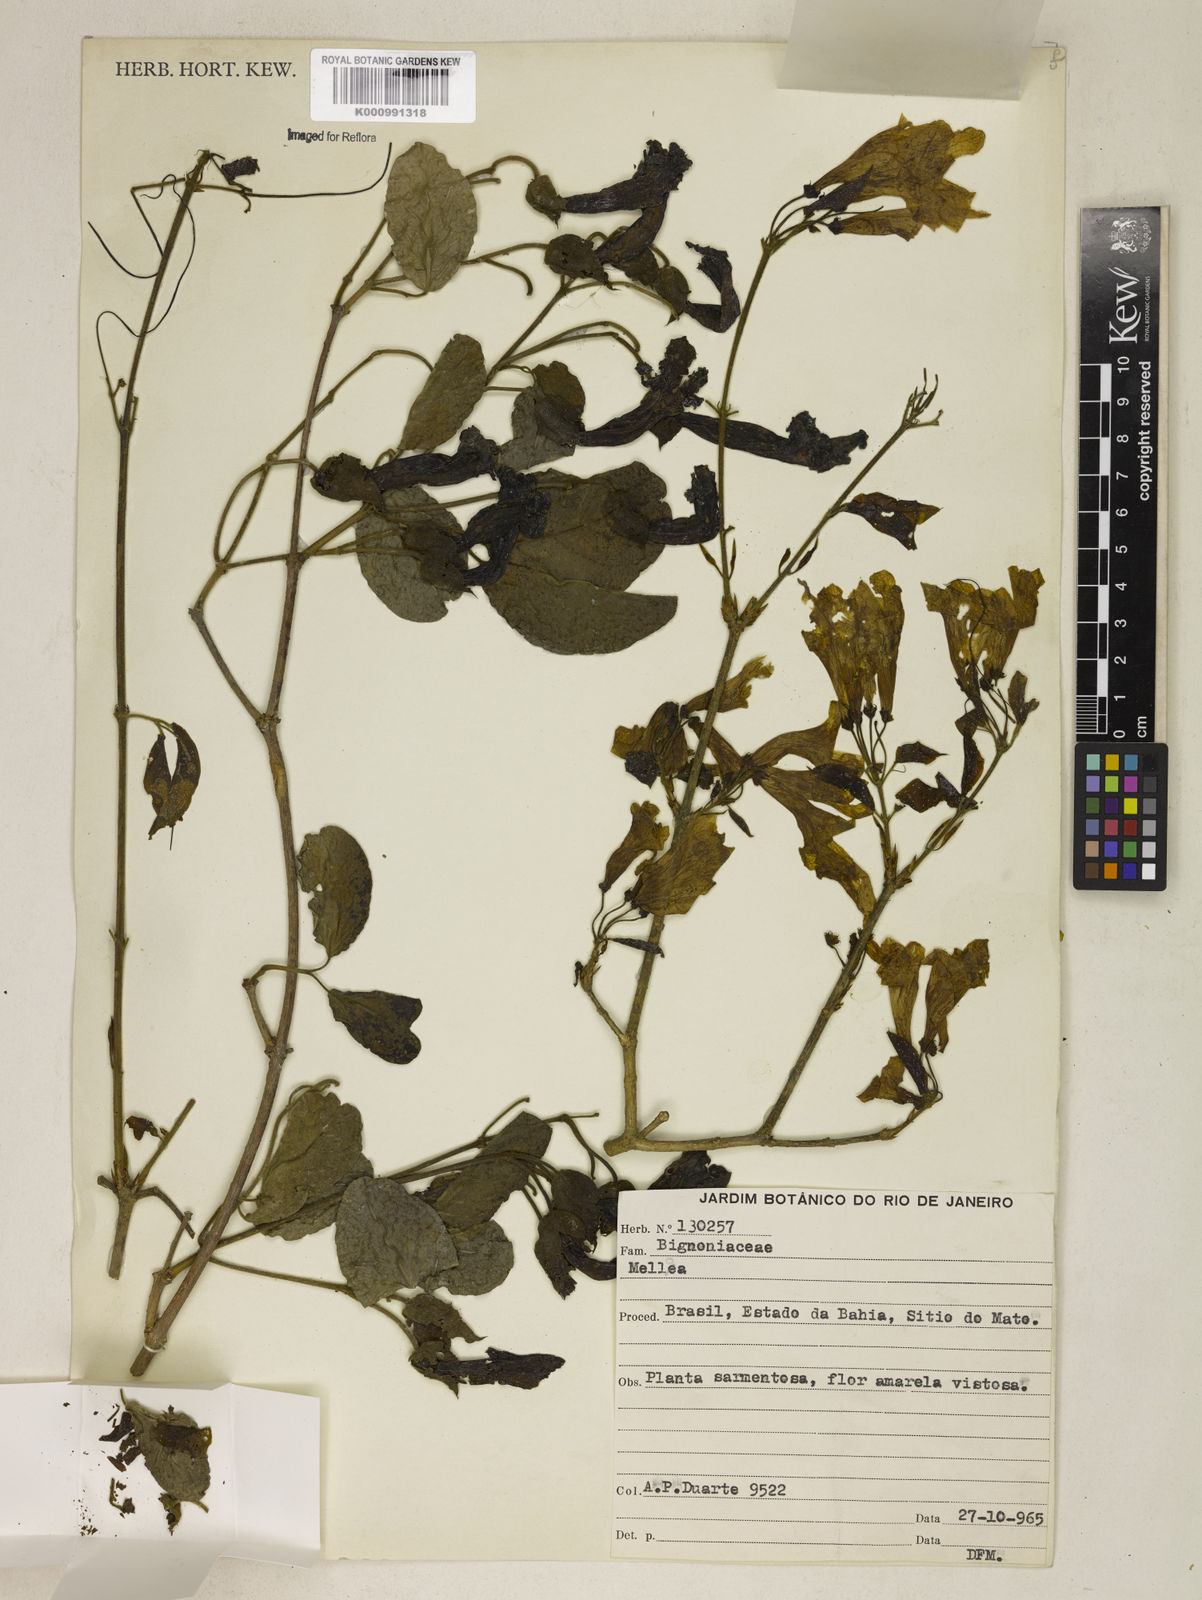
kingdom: Plantae
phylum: Tracheophyta
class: Magnoliopsida
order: Lamiales
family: Bignoniaceae
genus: Dolichandra
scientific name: Dolichandra
